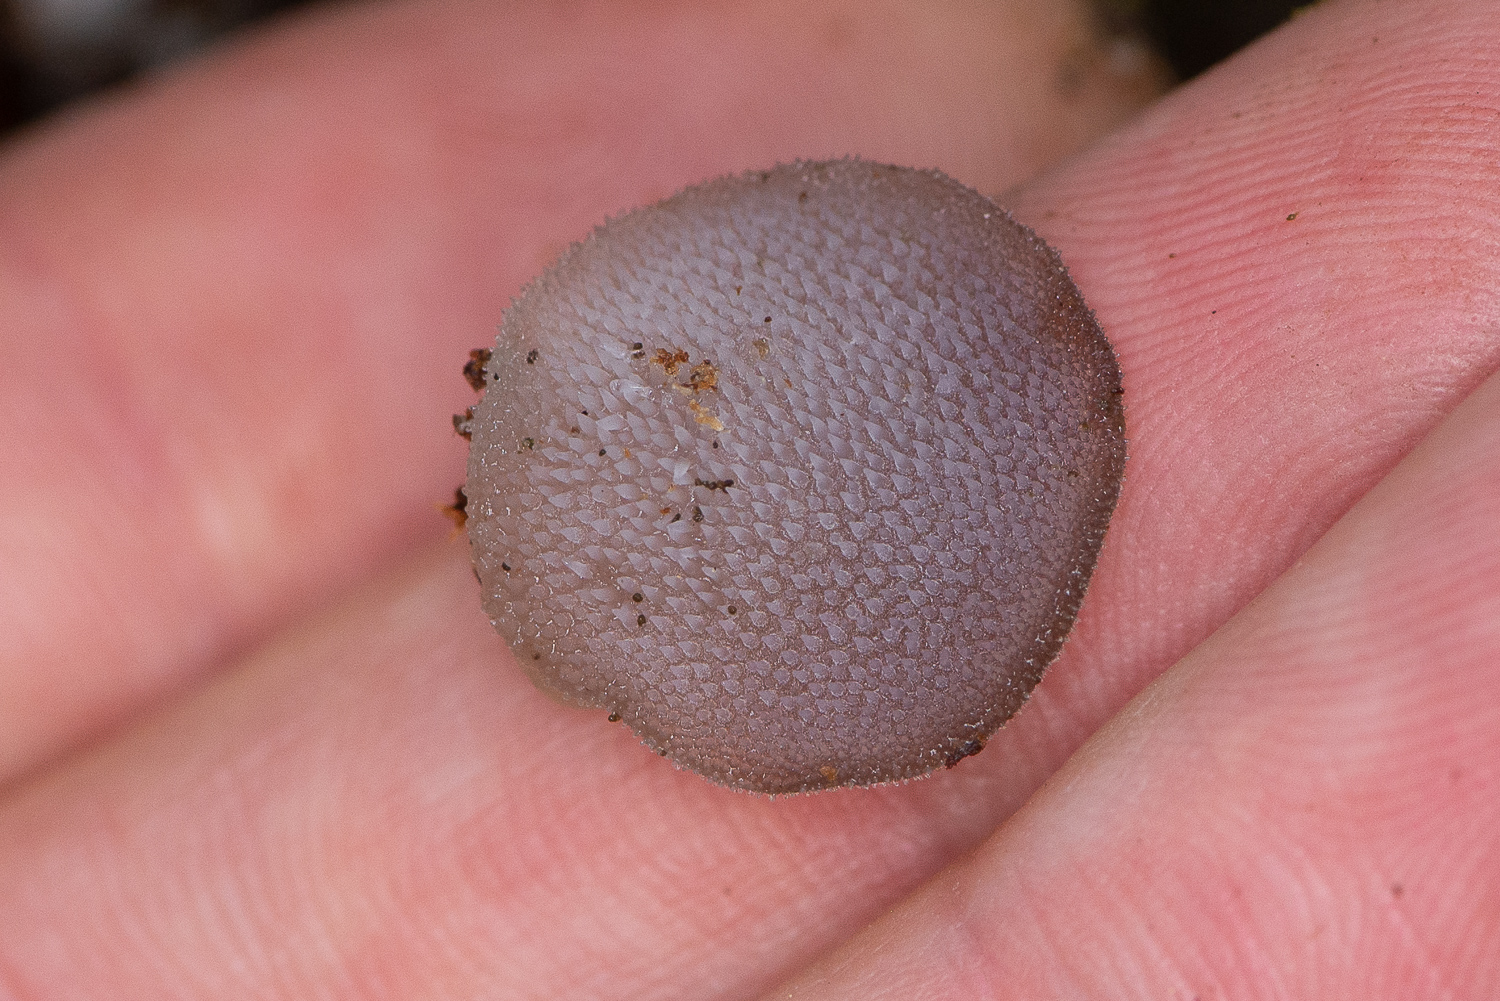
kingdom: Fungi
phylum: Basidiomycota
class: Agaricomycetes
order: Auriculariales
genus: Pseudohydnum
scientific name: Pseudohydnum gelatinosum
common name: bævretand
